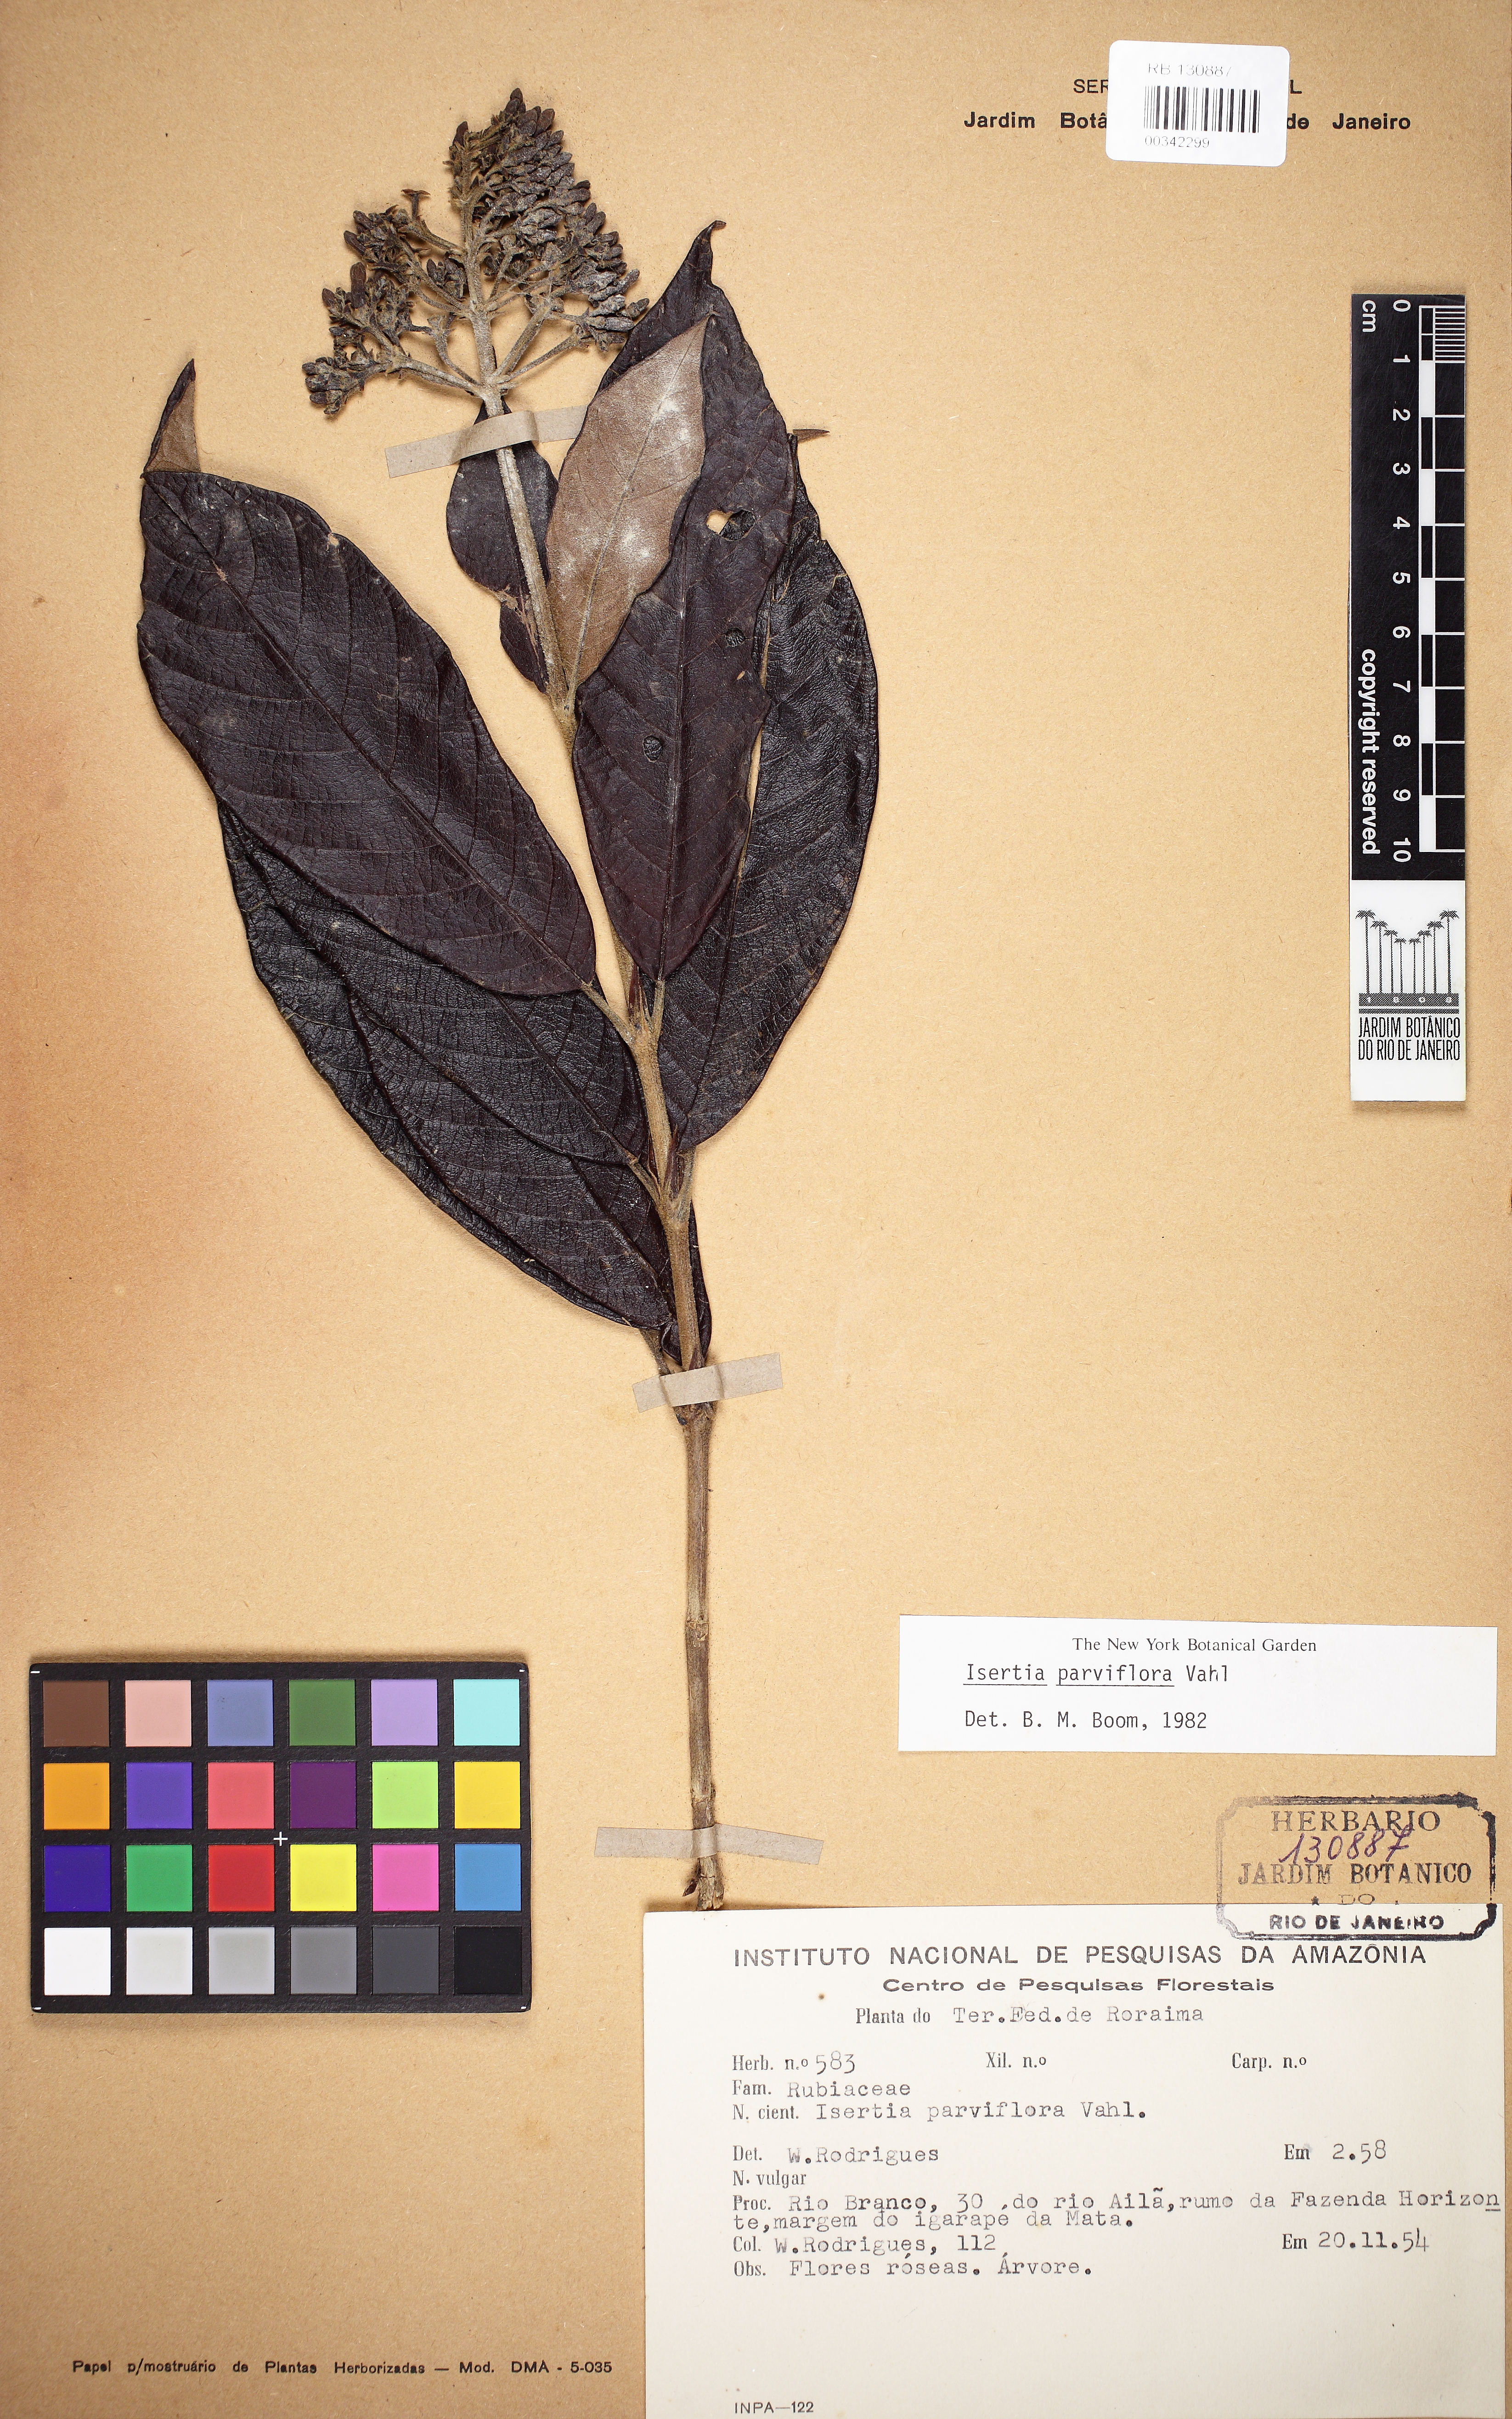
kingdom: Plantae
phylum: Tracheophyta
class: Magnoliopsida
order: Gentianales
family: Rubiaceae
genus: Isertia
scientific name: Isertia parviflora
